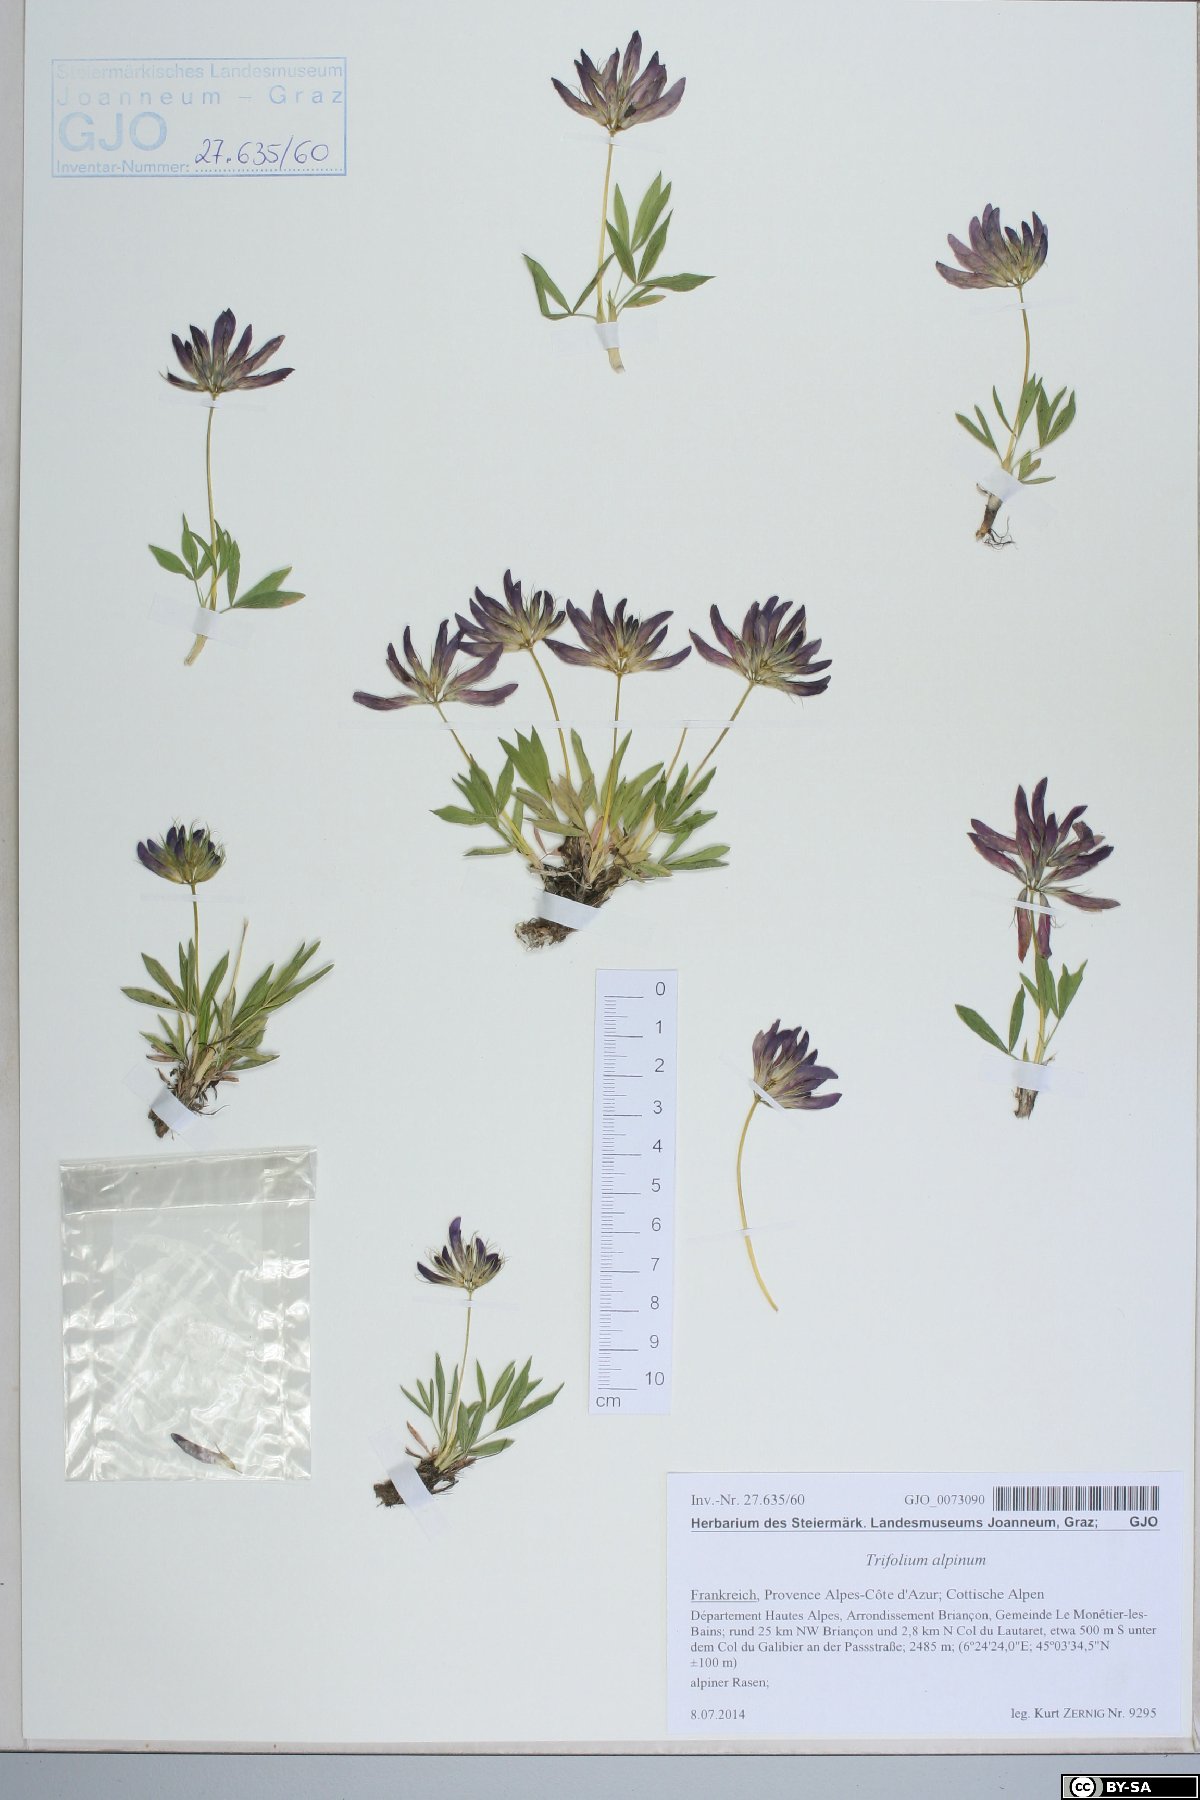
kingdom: Plantae
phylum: Tracheophyta
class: Magnoliopsida
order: Fabales
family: Fabaceae
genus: Trifolium
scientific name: Trifolium alpinum
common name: Alpine clover
